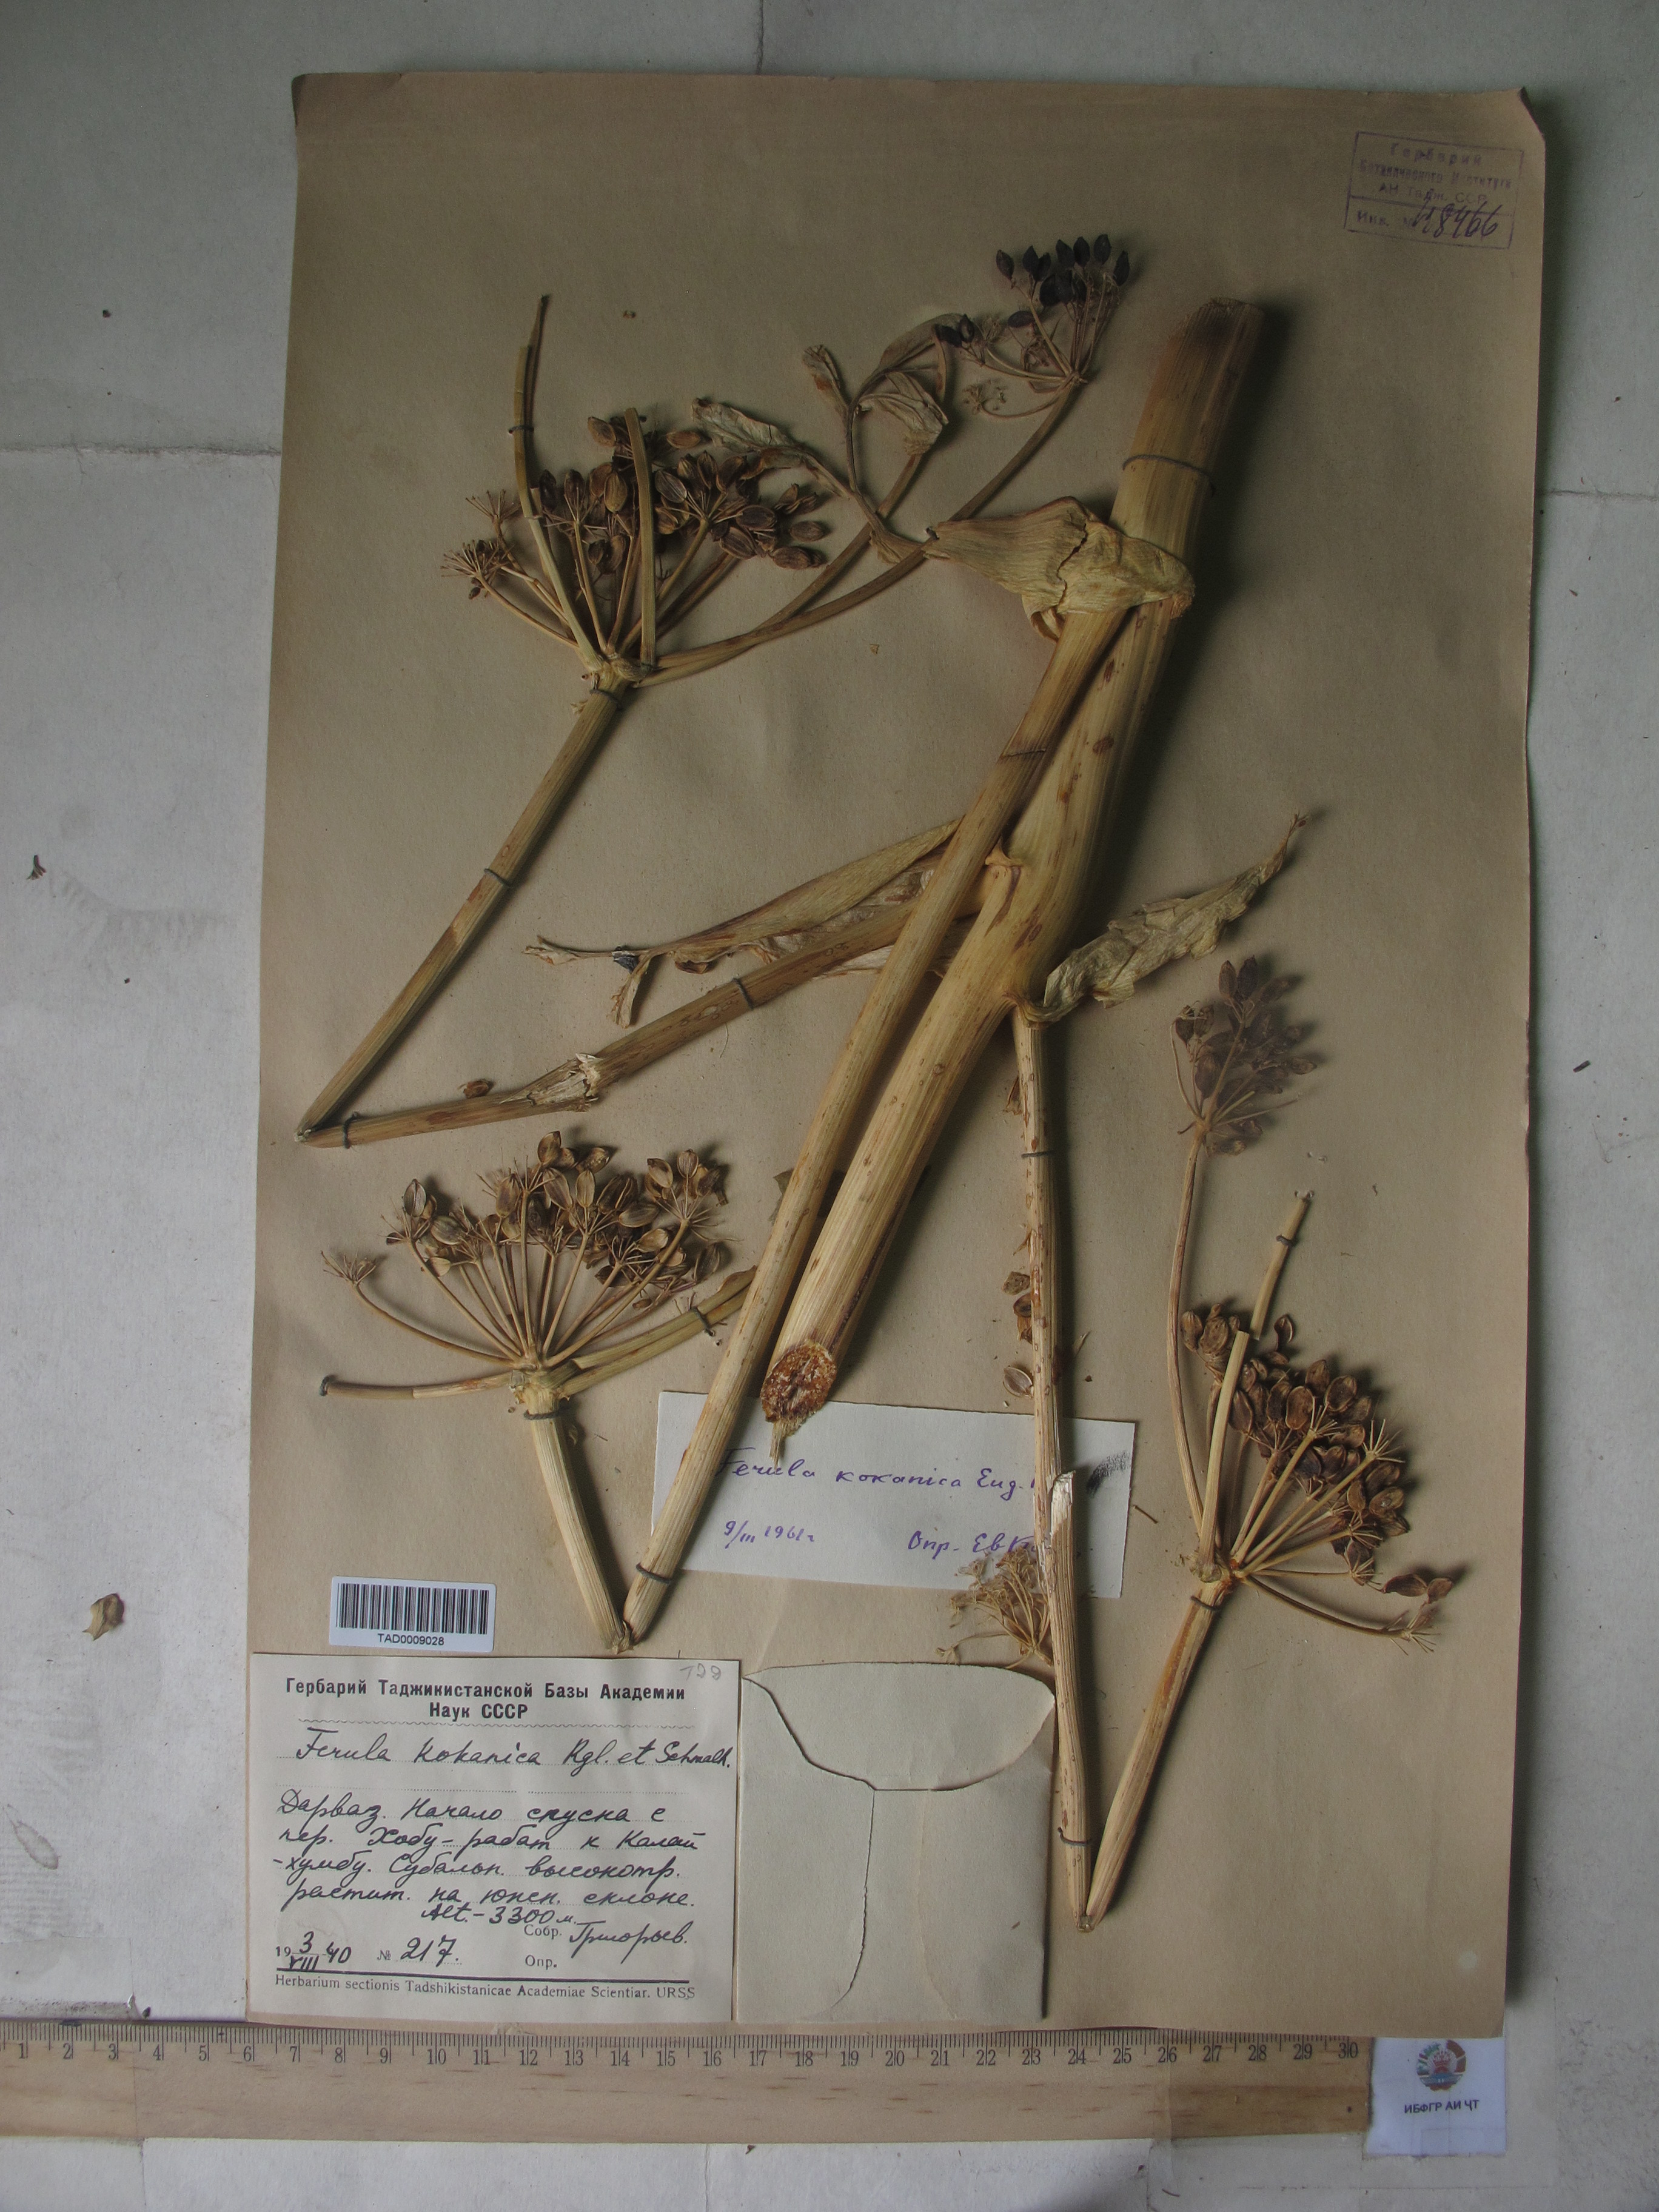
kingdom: Plantae
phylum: Tracheophyta
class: Magnoliopsida
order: Apiales
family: Apiaceae
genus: Ferula
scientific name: Ferula kokanica
